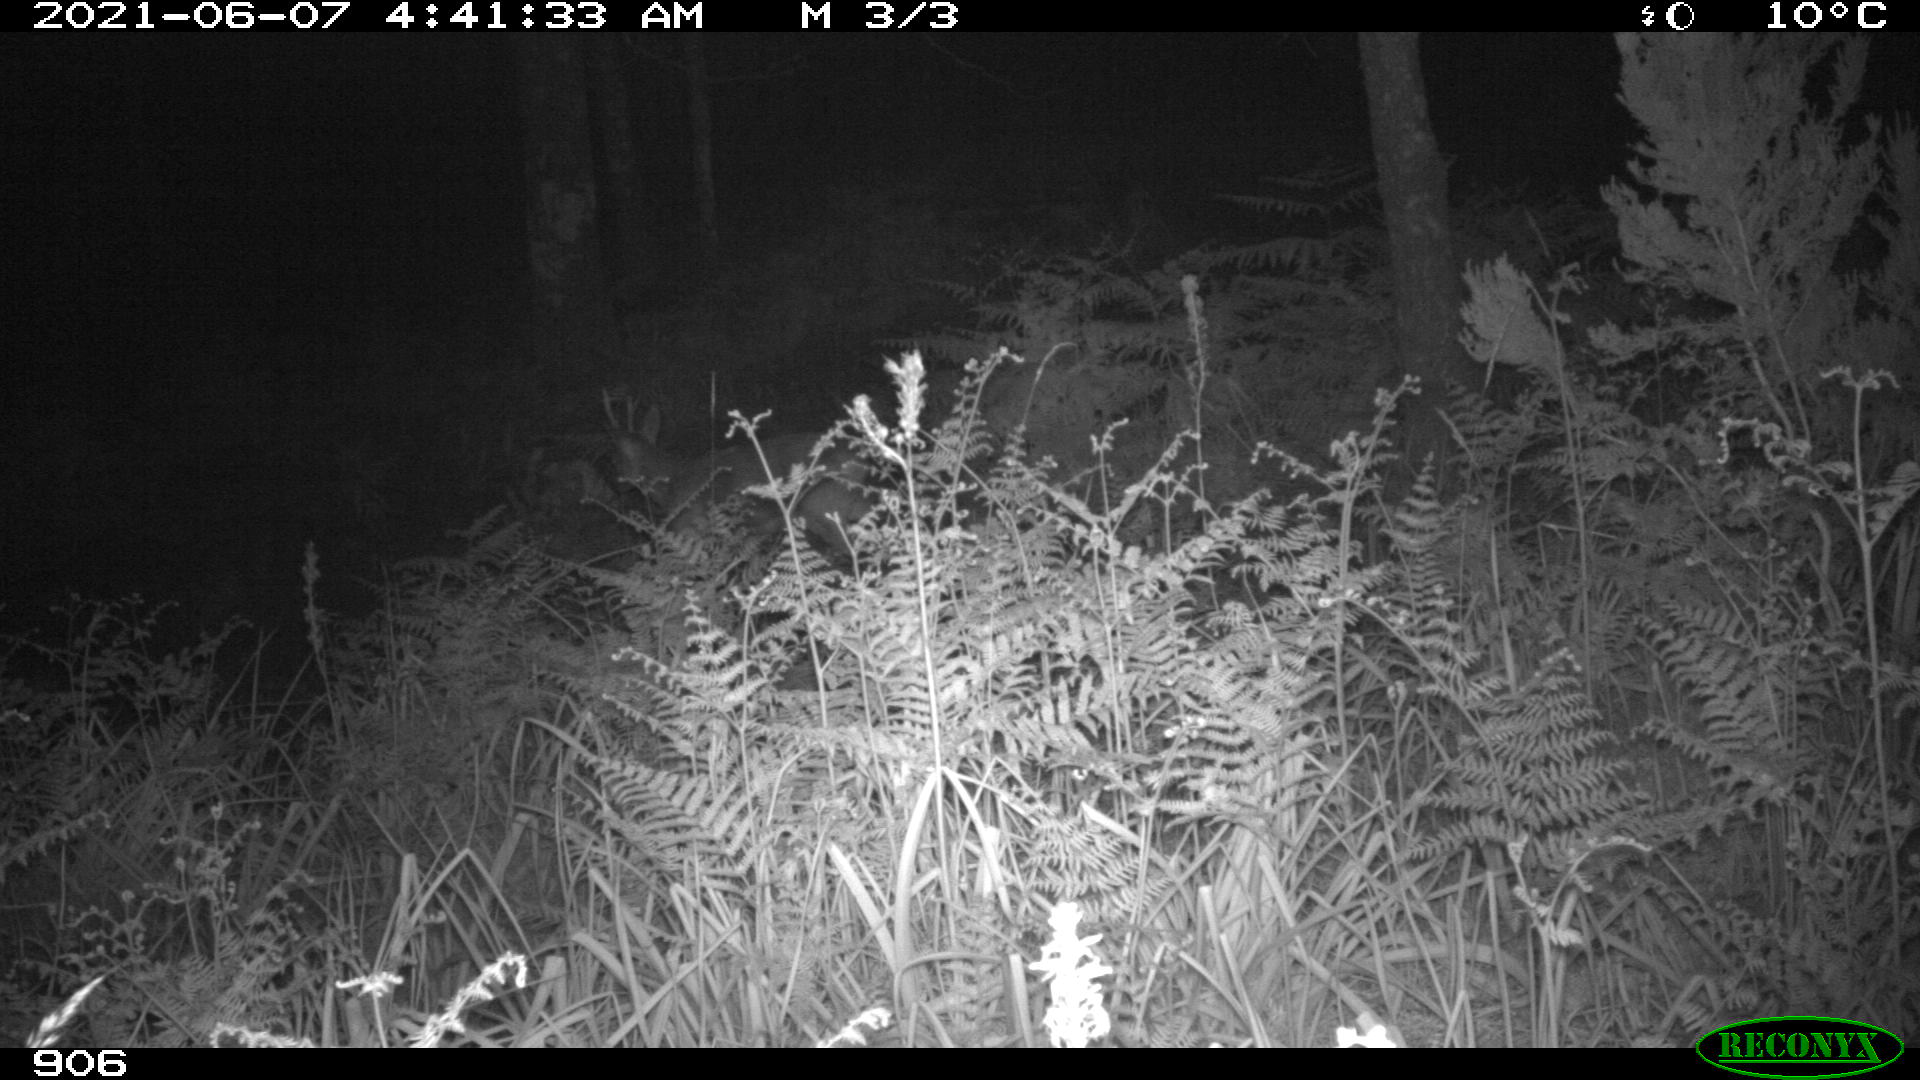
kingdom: Animalia
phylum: Chordata
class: Mammalia
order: Artiodactyla
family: Cervidae
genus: Capreolus
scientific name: Capreolus capreolus
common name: Western roe deer
